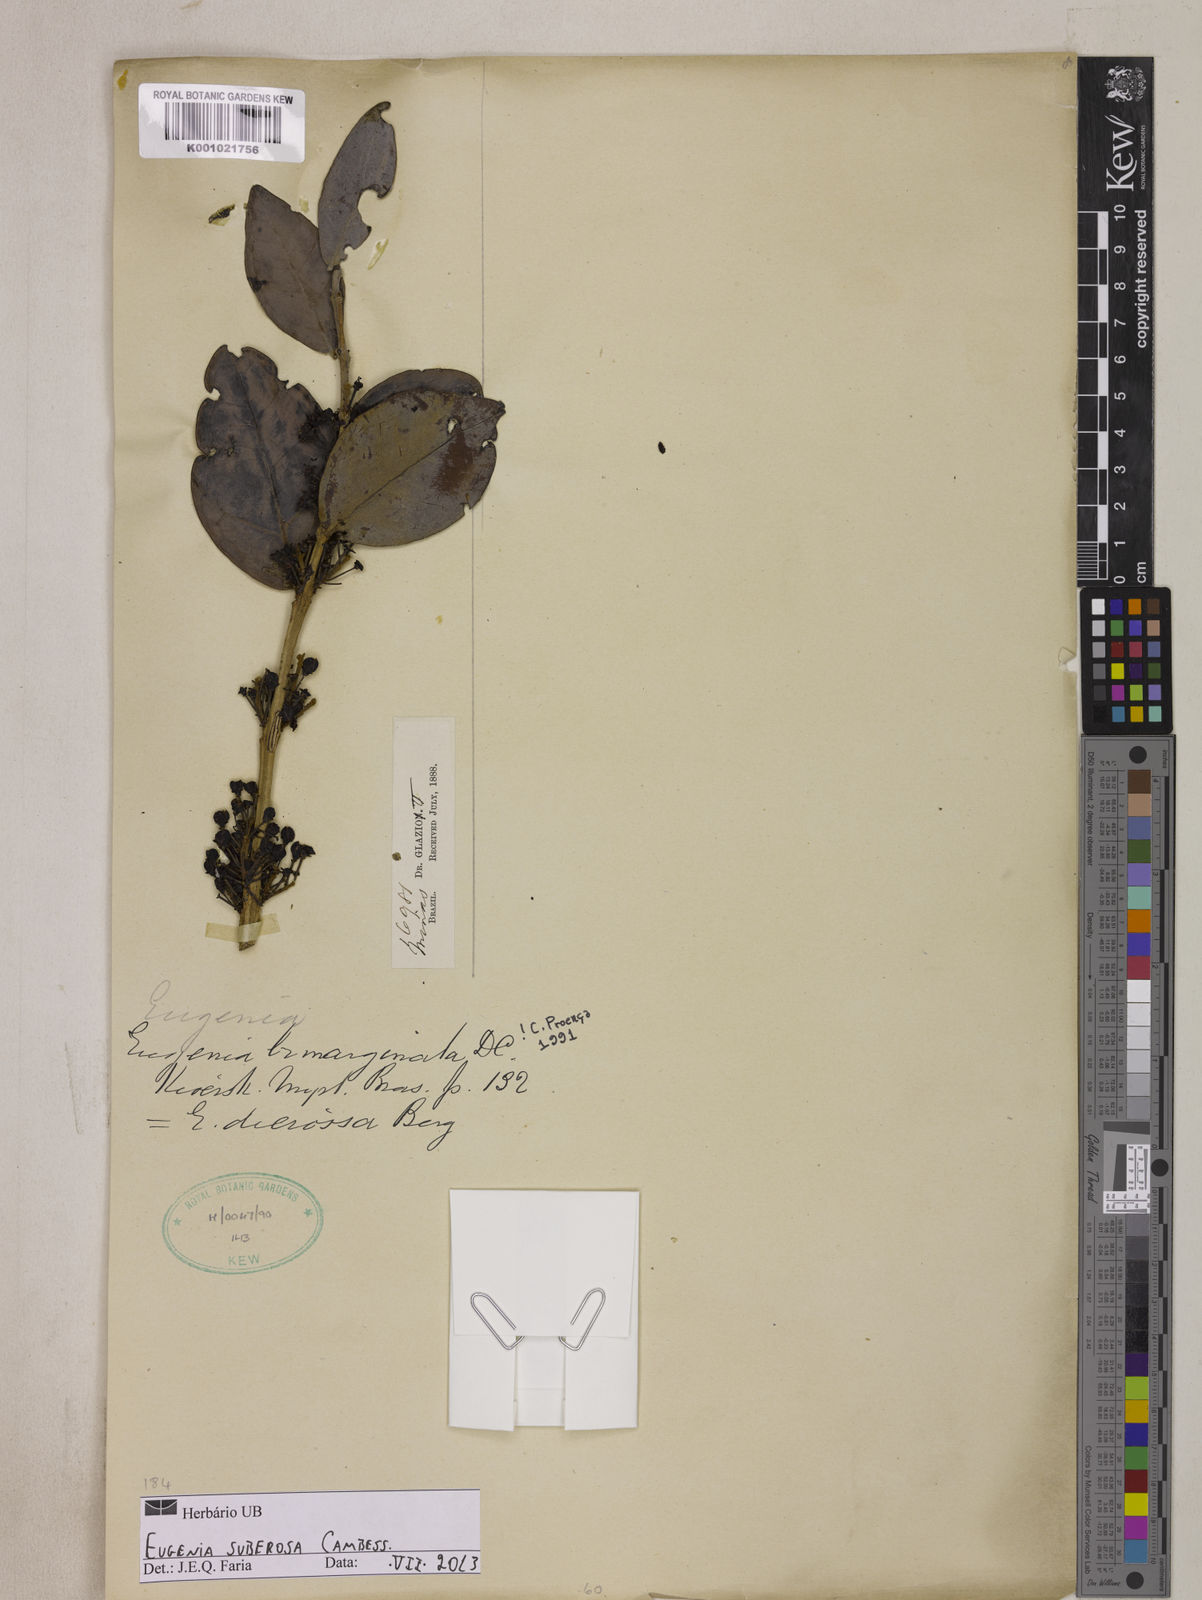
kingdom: Plantae
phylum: Tracheophyta
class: Magnoliopsida
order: Myrtales
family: Myrtaceae
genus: Eugenia
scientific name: Eugenia suberosa
